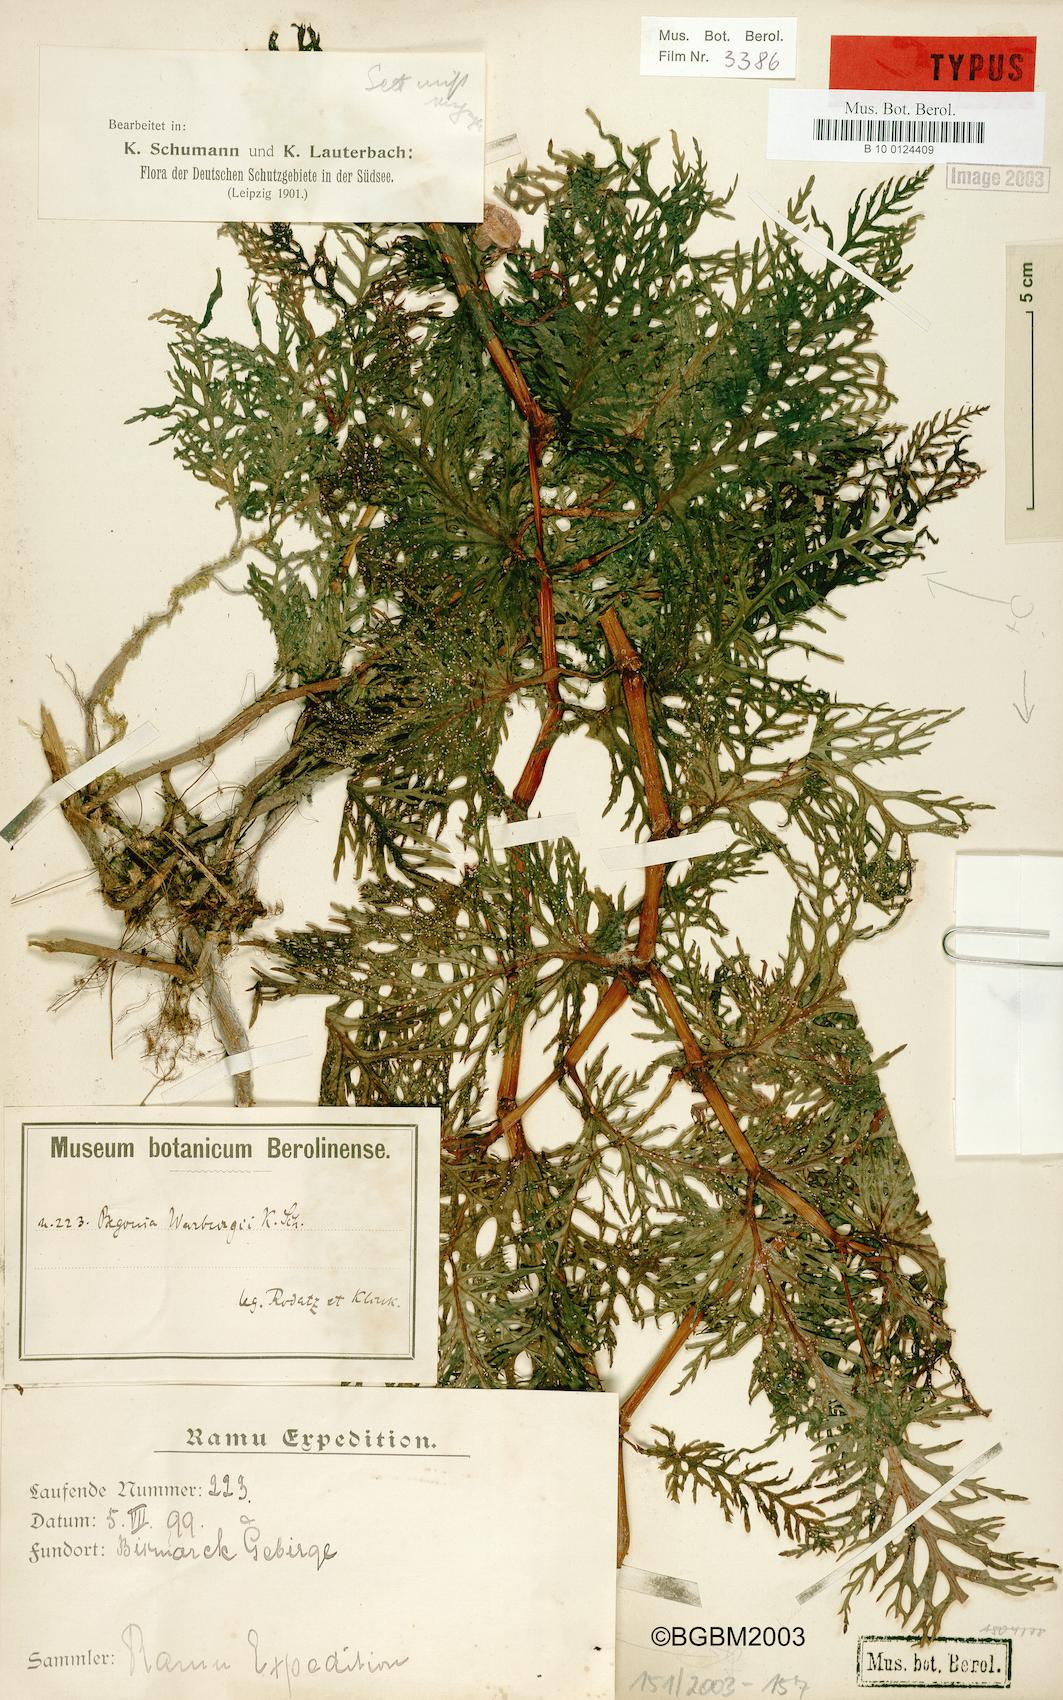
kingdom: Plantae
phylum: Tracheophyta
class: Magnoliopsida
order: Cucurbitales
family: Begoniaceae
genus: Begonia
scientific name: Begonia warburgii
